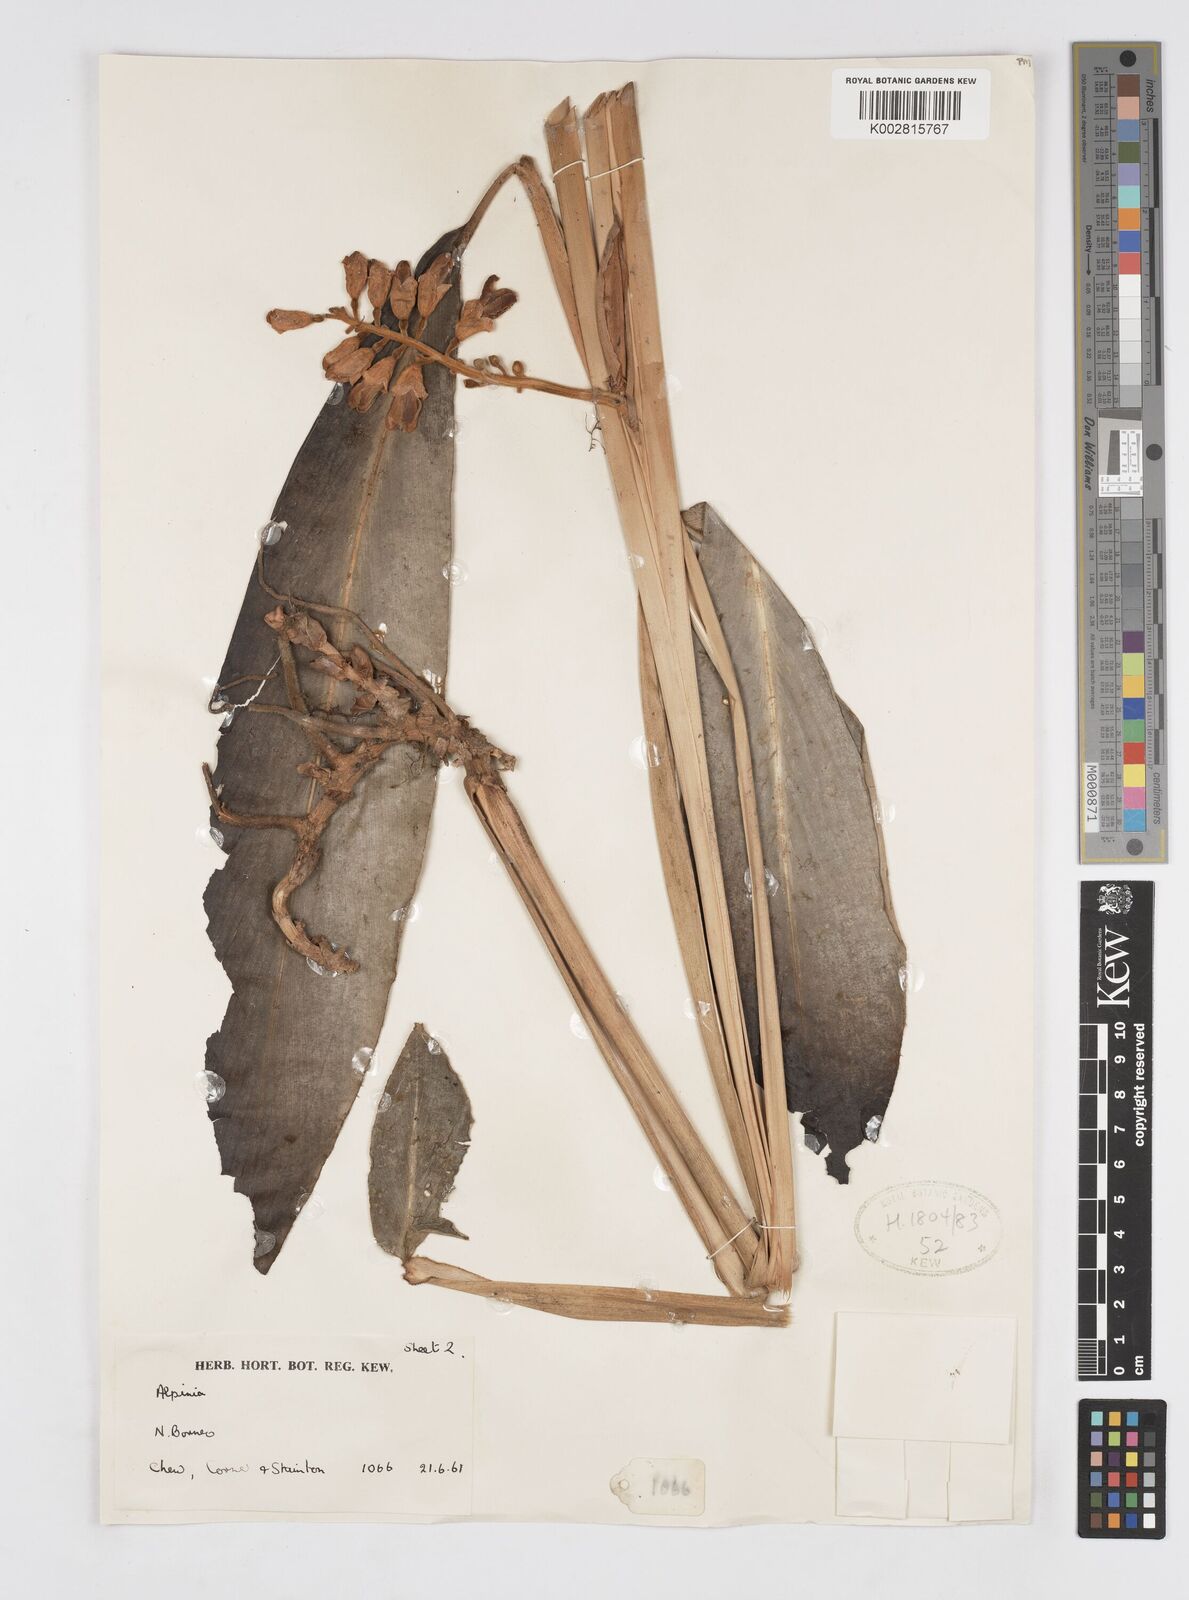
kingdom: Plantae
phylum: Tracheophyta
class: Liliopsida
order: Zingiberales
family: Zingiberaceae
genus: Alpinia
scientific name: Alpinia havilandii
